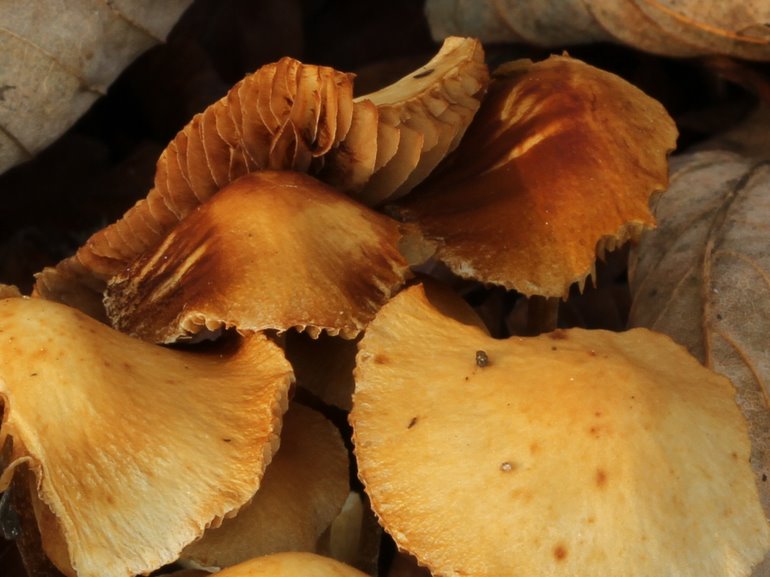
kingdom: Fungi
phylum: Basidiomycota
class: Agaricomycetes
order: Agaricales
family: Bolbitiaceae
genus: Conocybe
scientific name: Conocybe rugosa
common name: giftig dansehat
